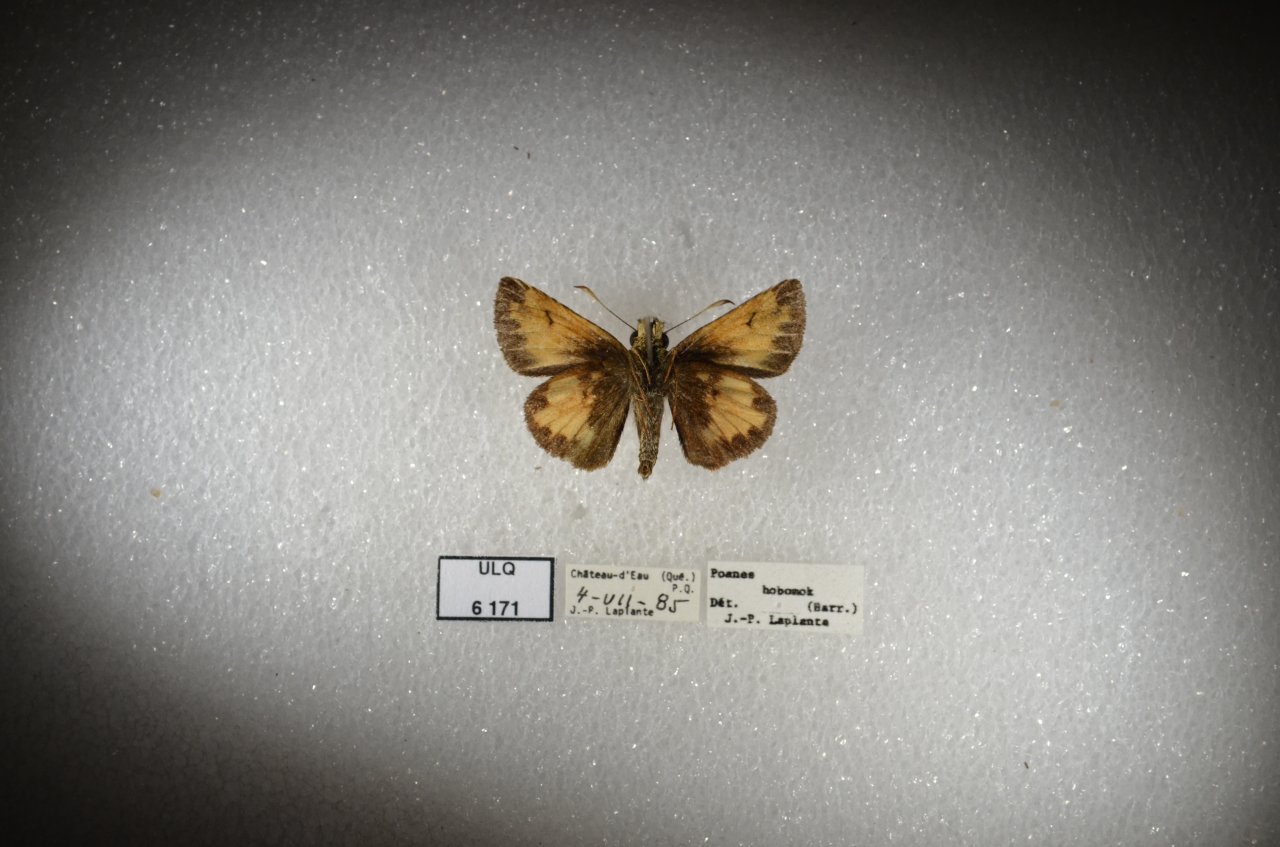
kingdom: Animalia
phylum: Arthropoda
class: Insecta
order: Lepidoptera
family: Hesperiidae
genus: Lon
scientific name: Lon hobomok
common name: Hobomok Skipper
